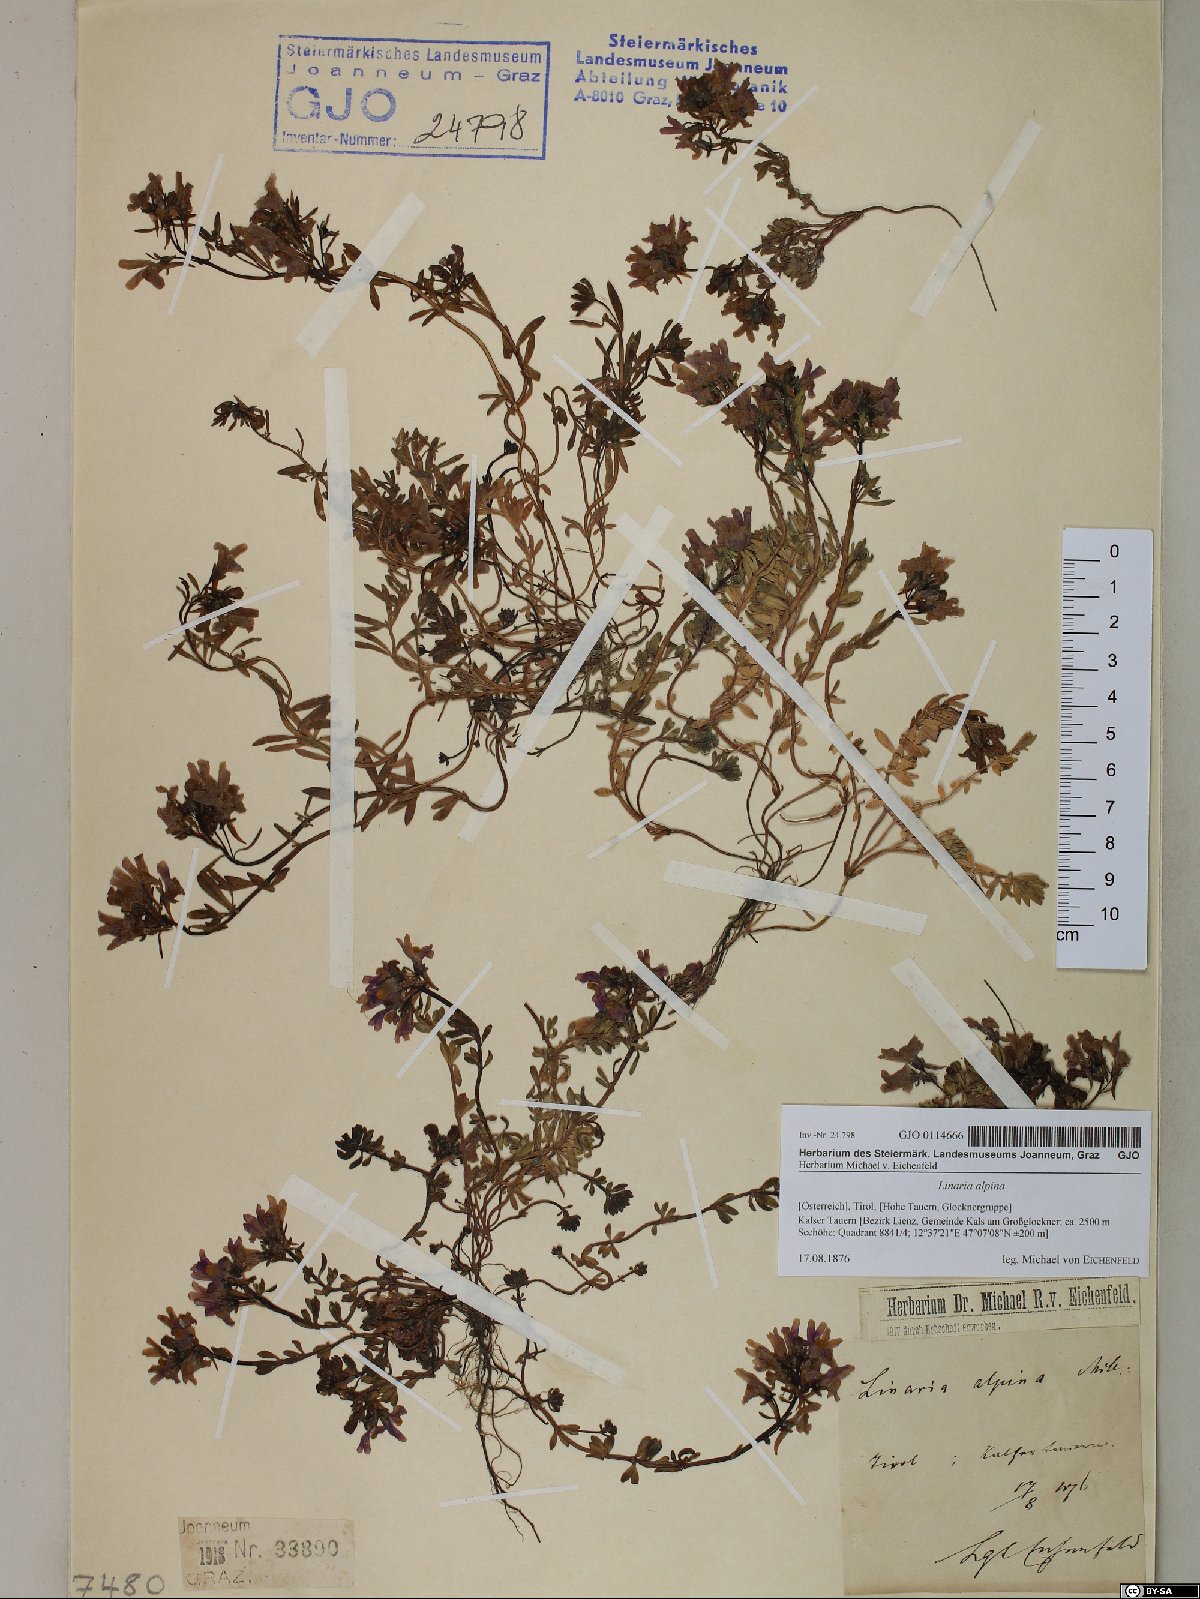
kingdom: Plantae
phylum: Tracheophyta
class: Magnoliopsida
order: Lamiales
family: Plantaginaceae
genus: Linaria
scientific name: Linaria alpina
